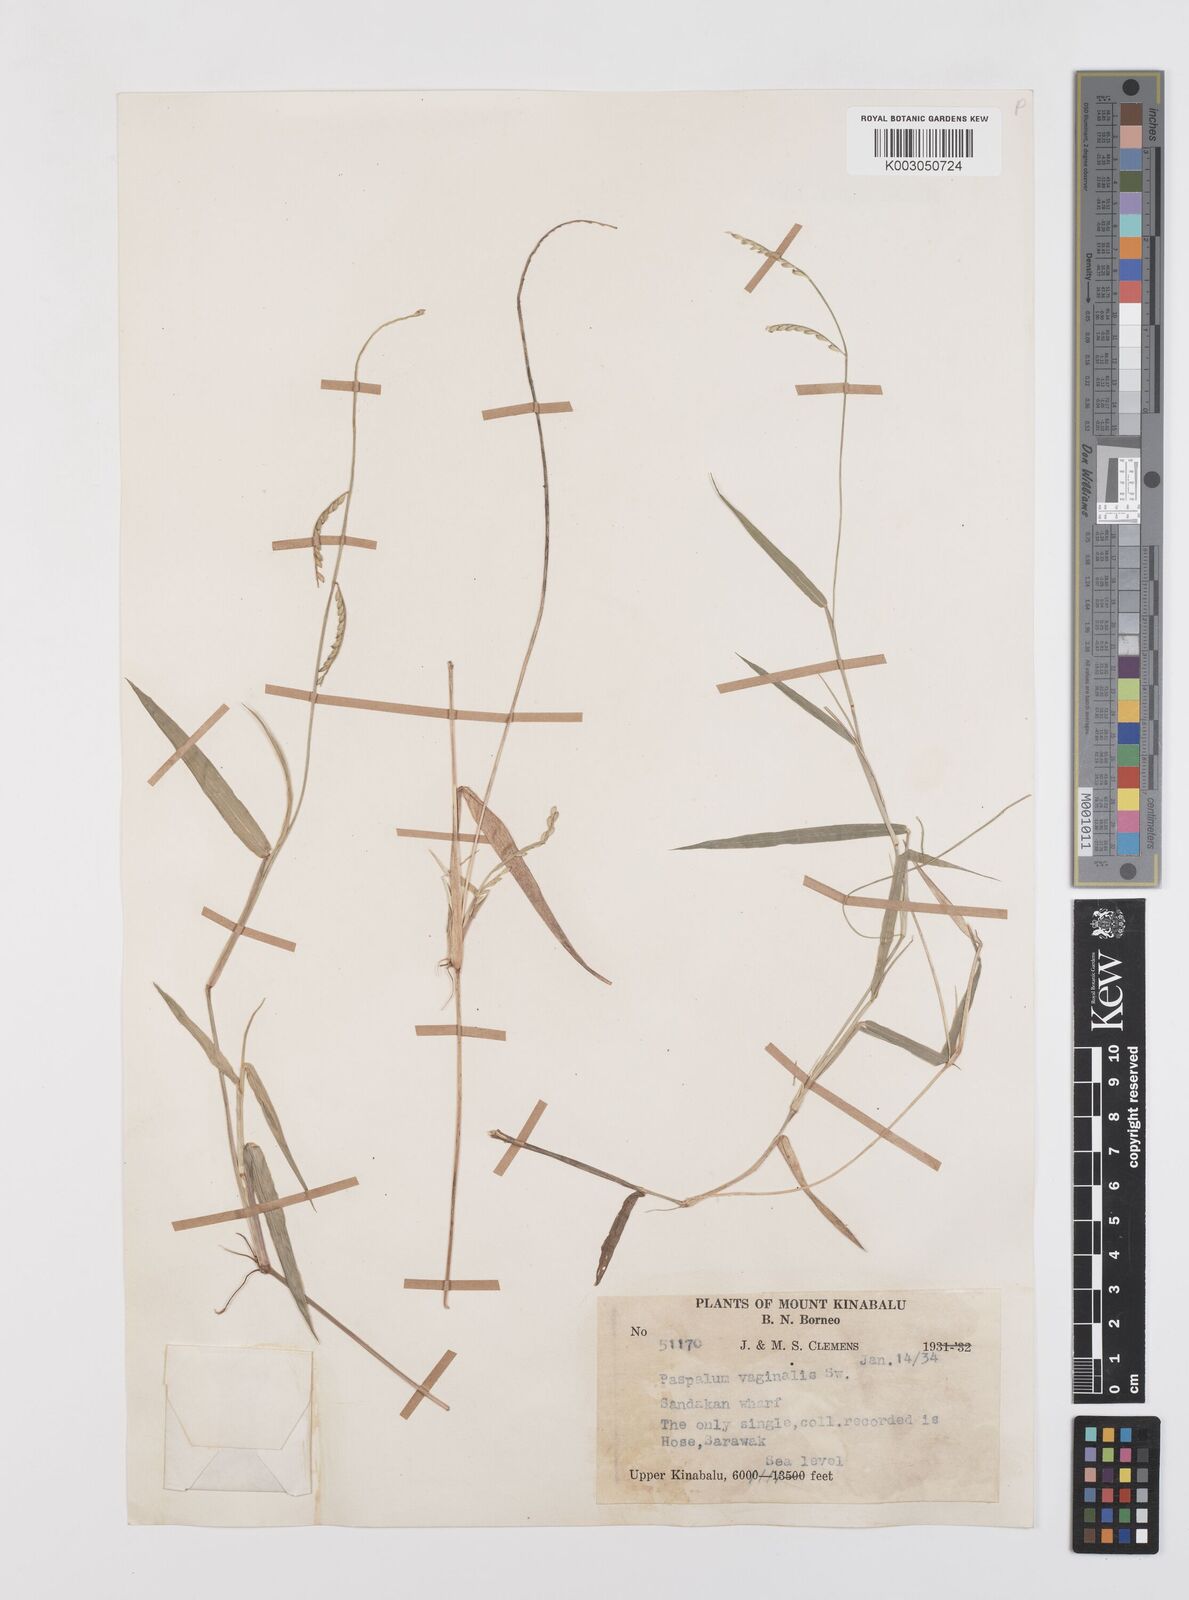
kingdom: Plantae
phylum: Tracheophyta
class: Liliopsida
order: Poales
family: Poaceae
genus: Urochloa
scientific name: Urochloa subquadripara
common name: Armgrass millet
